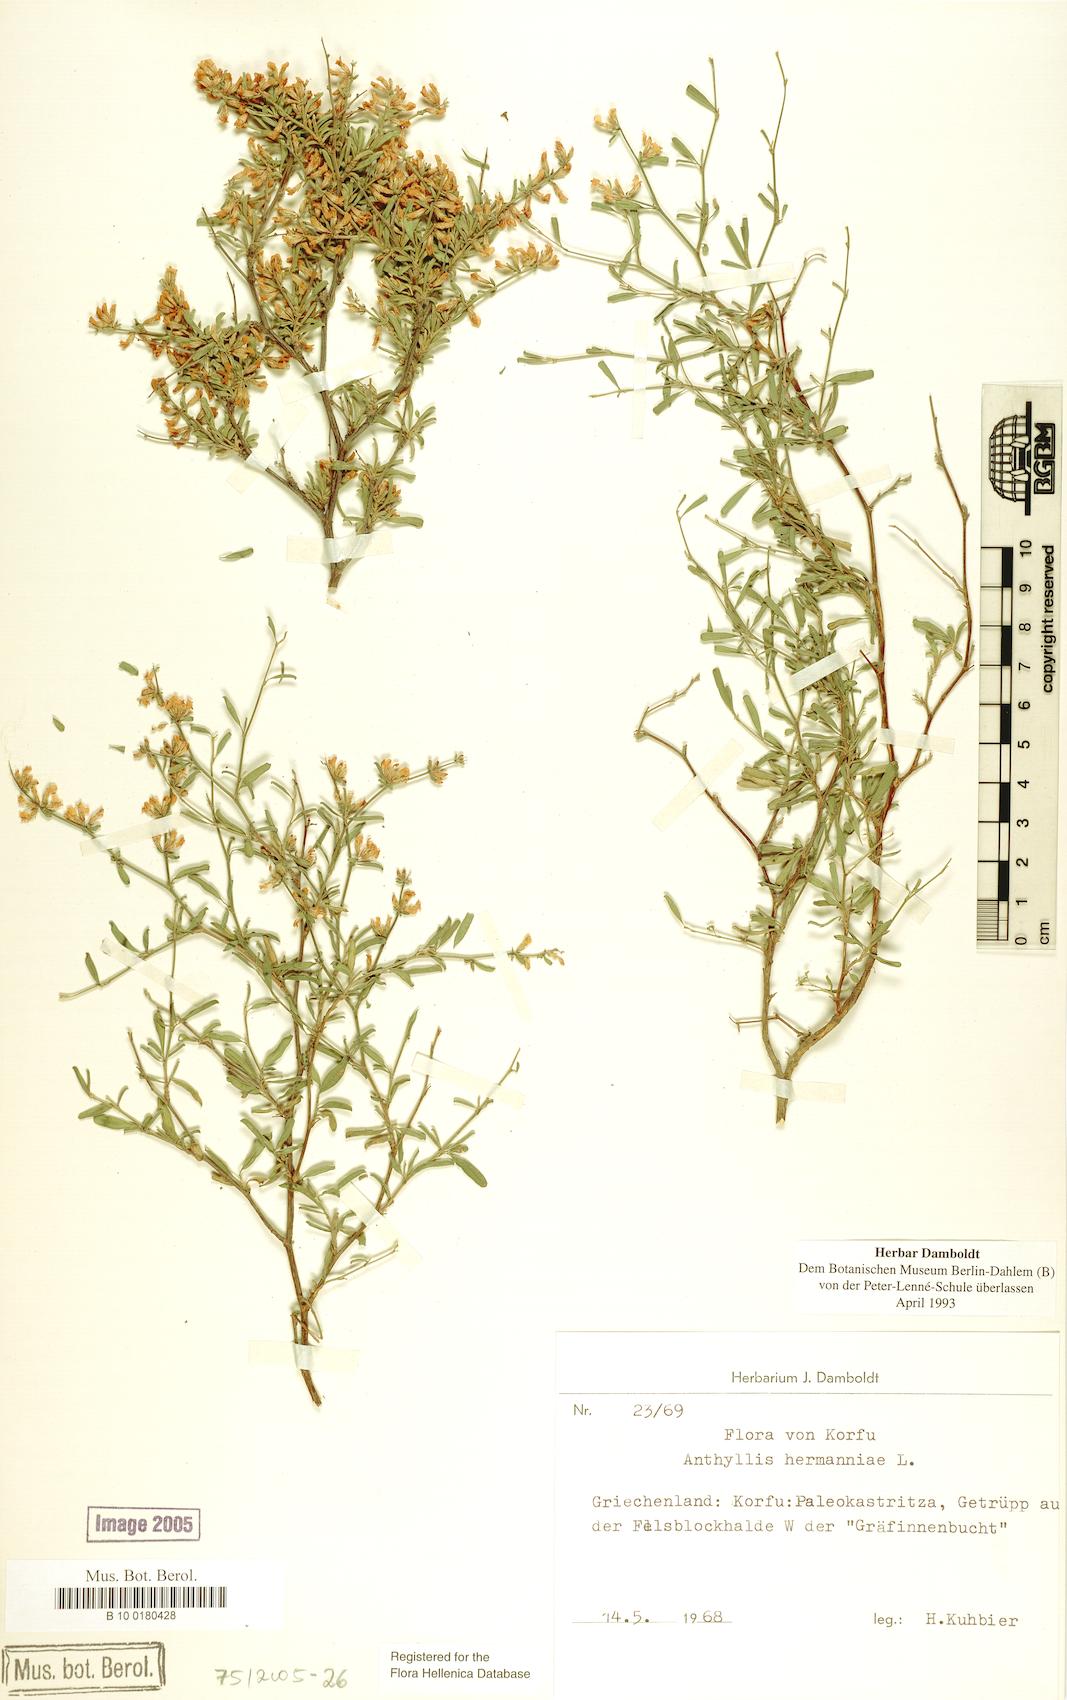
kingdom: Plantae
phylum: Tracheophyta
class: Magnoliopsida
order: Fabales
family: Fabaceae
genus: Anthyllis
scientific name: Anthyllis hermanniae
